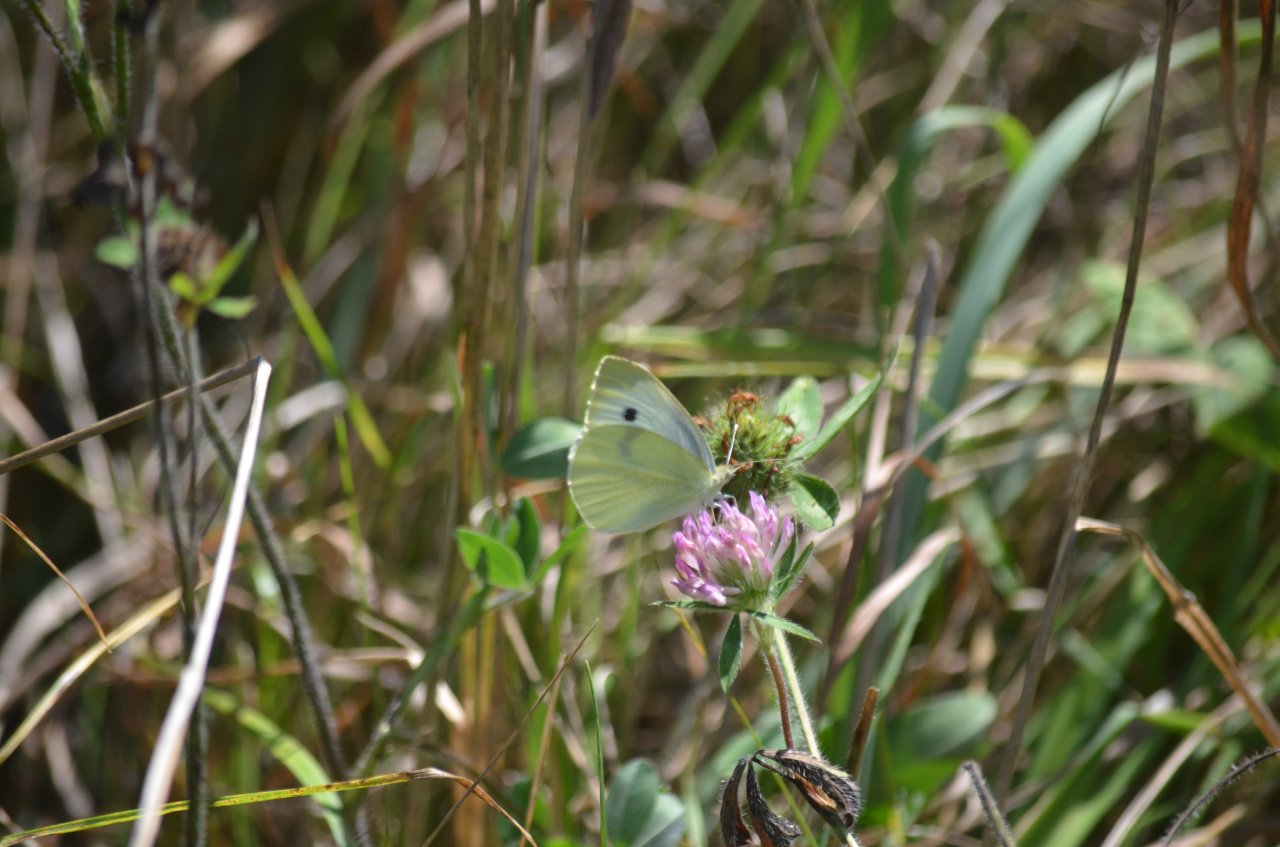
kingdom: Animalia
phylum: Arthropoda
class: Insecta
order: Lepidoptera
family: Pieridae
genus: Pieris
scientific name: Pieris rapae
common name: Cabbage White
